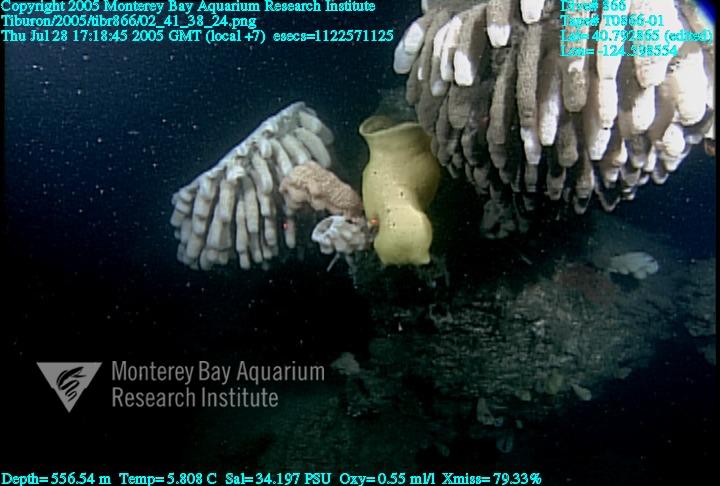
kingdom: Animalia
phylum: Porifera
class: Hexactinellida
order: Lyssacinosida
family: Rossellidae
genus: Staurocalyptus
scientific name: Staurocalyptus
